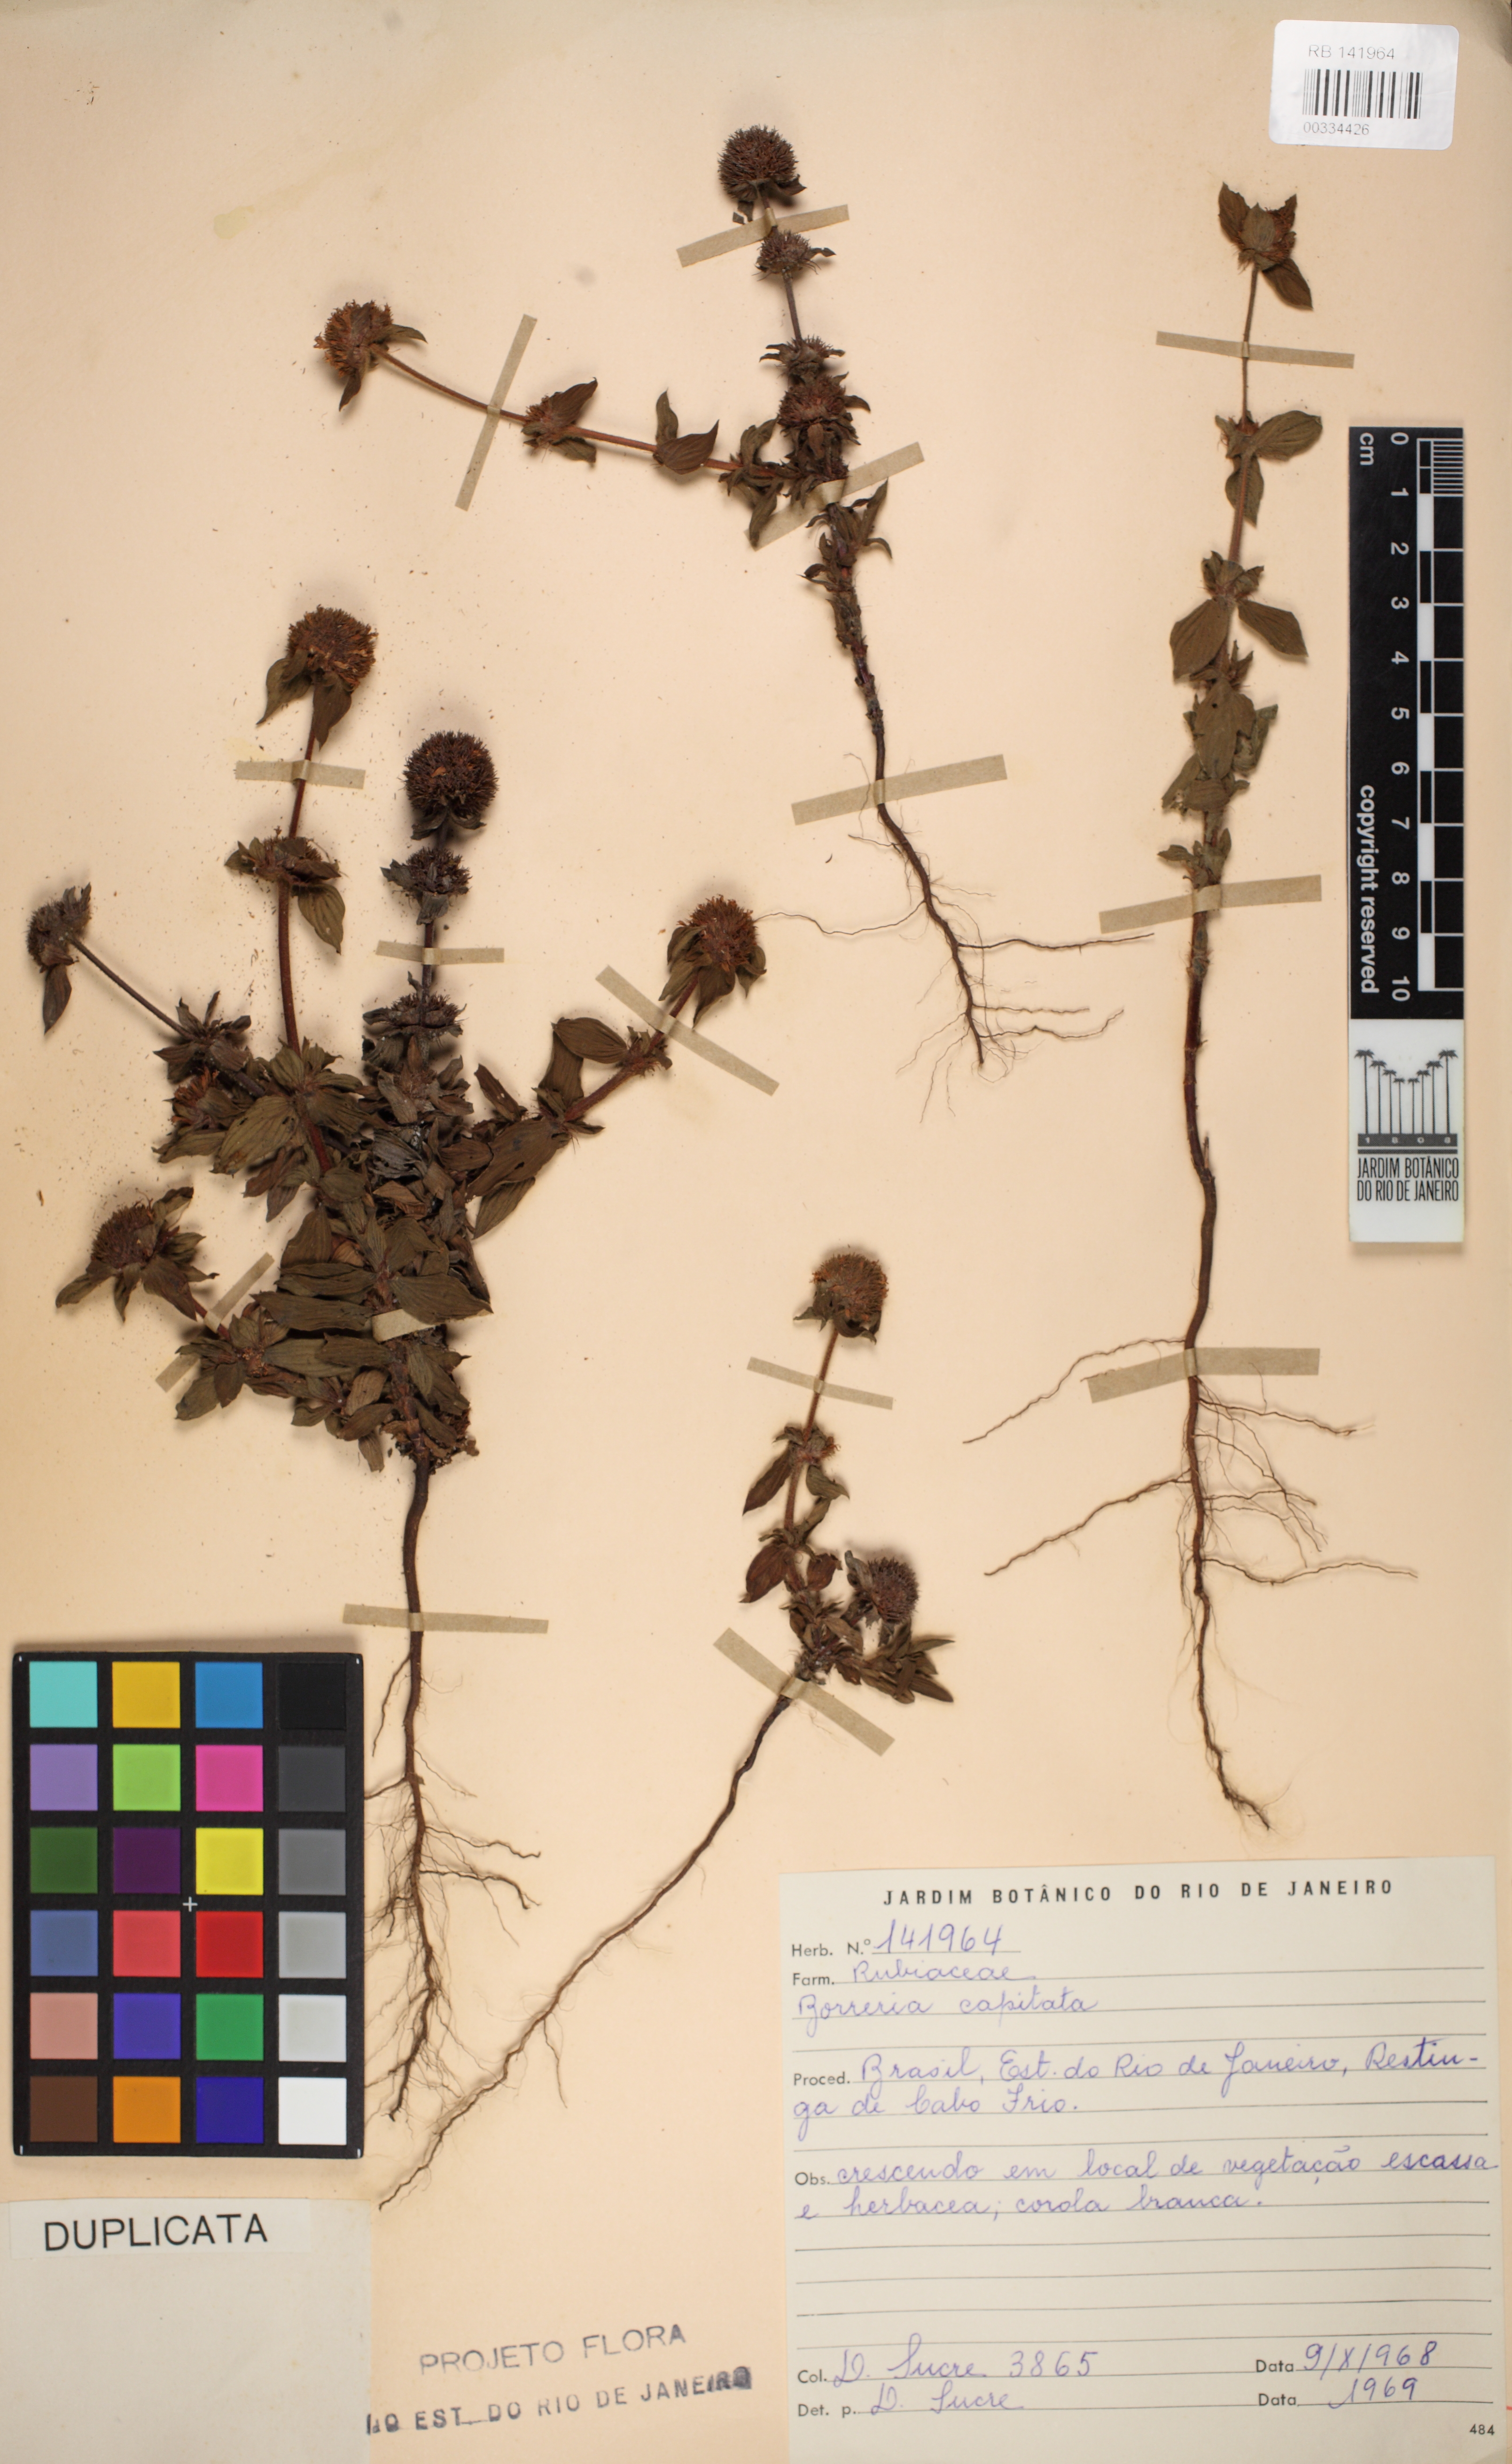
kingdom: Plantae
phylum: Tracheophyta
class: Magnoliopsida
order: Gentianales
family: Rubiaceae
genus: Spermacoce
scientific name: Spermacoce capitata
